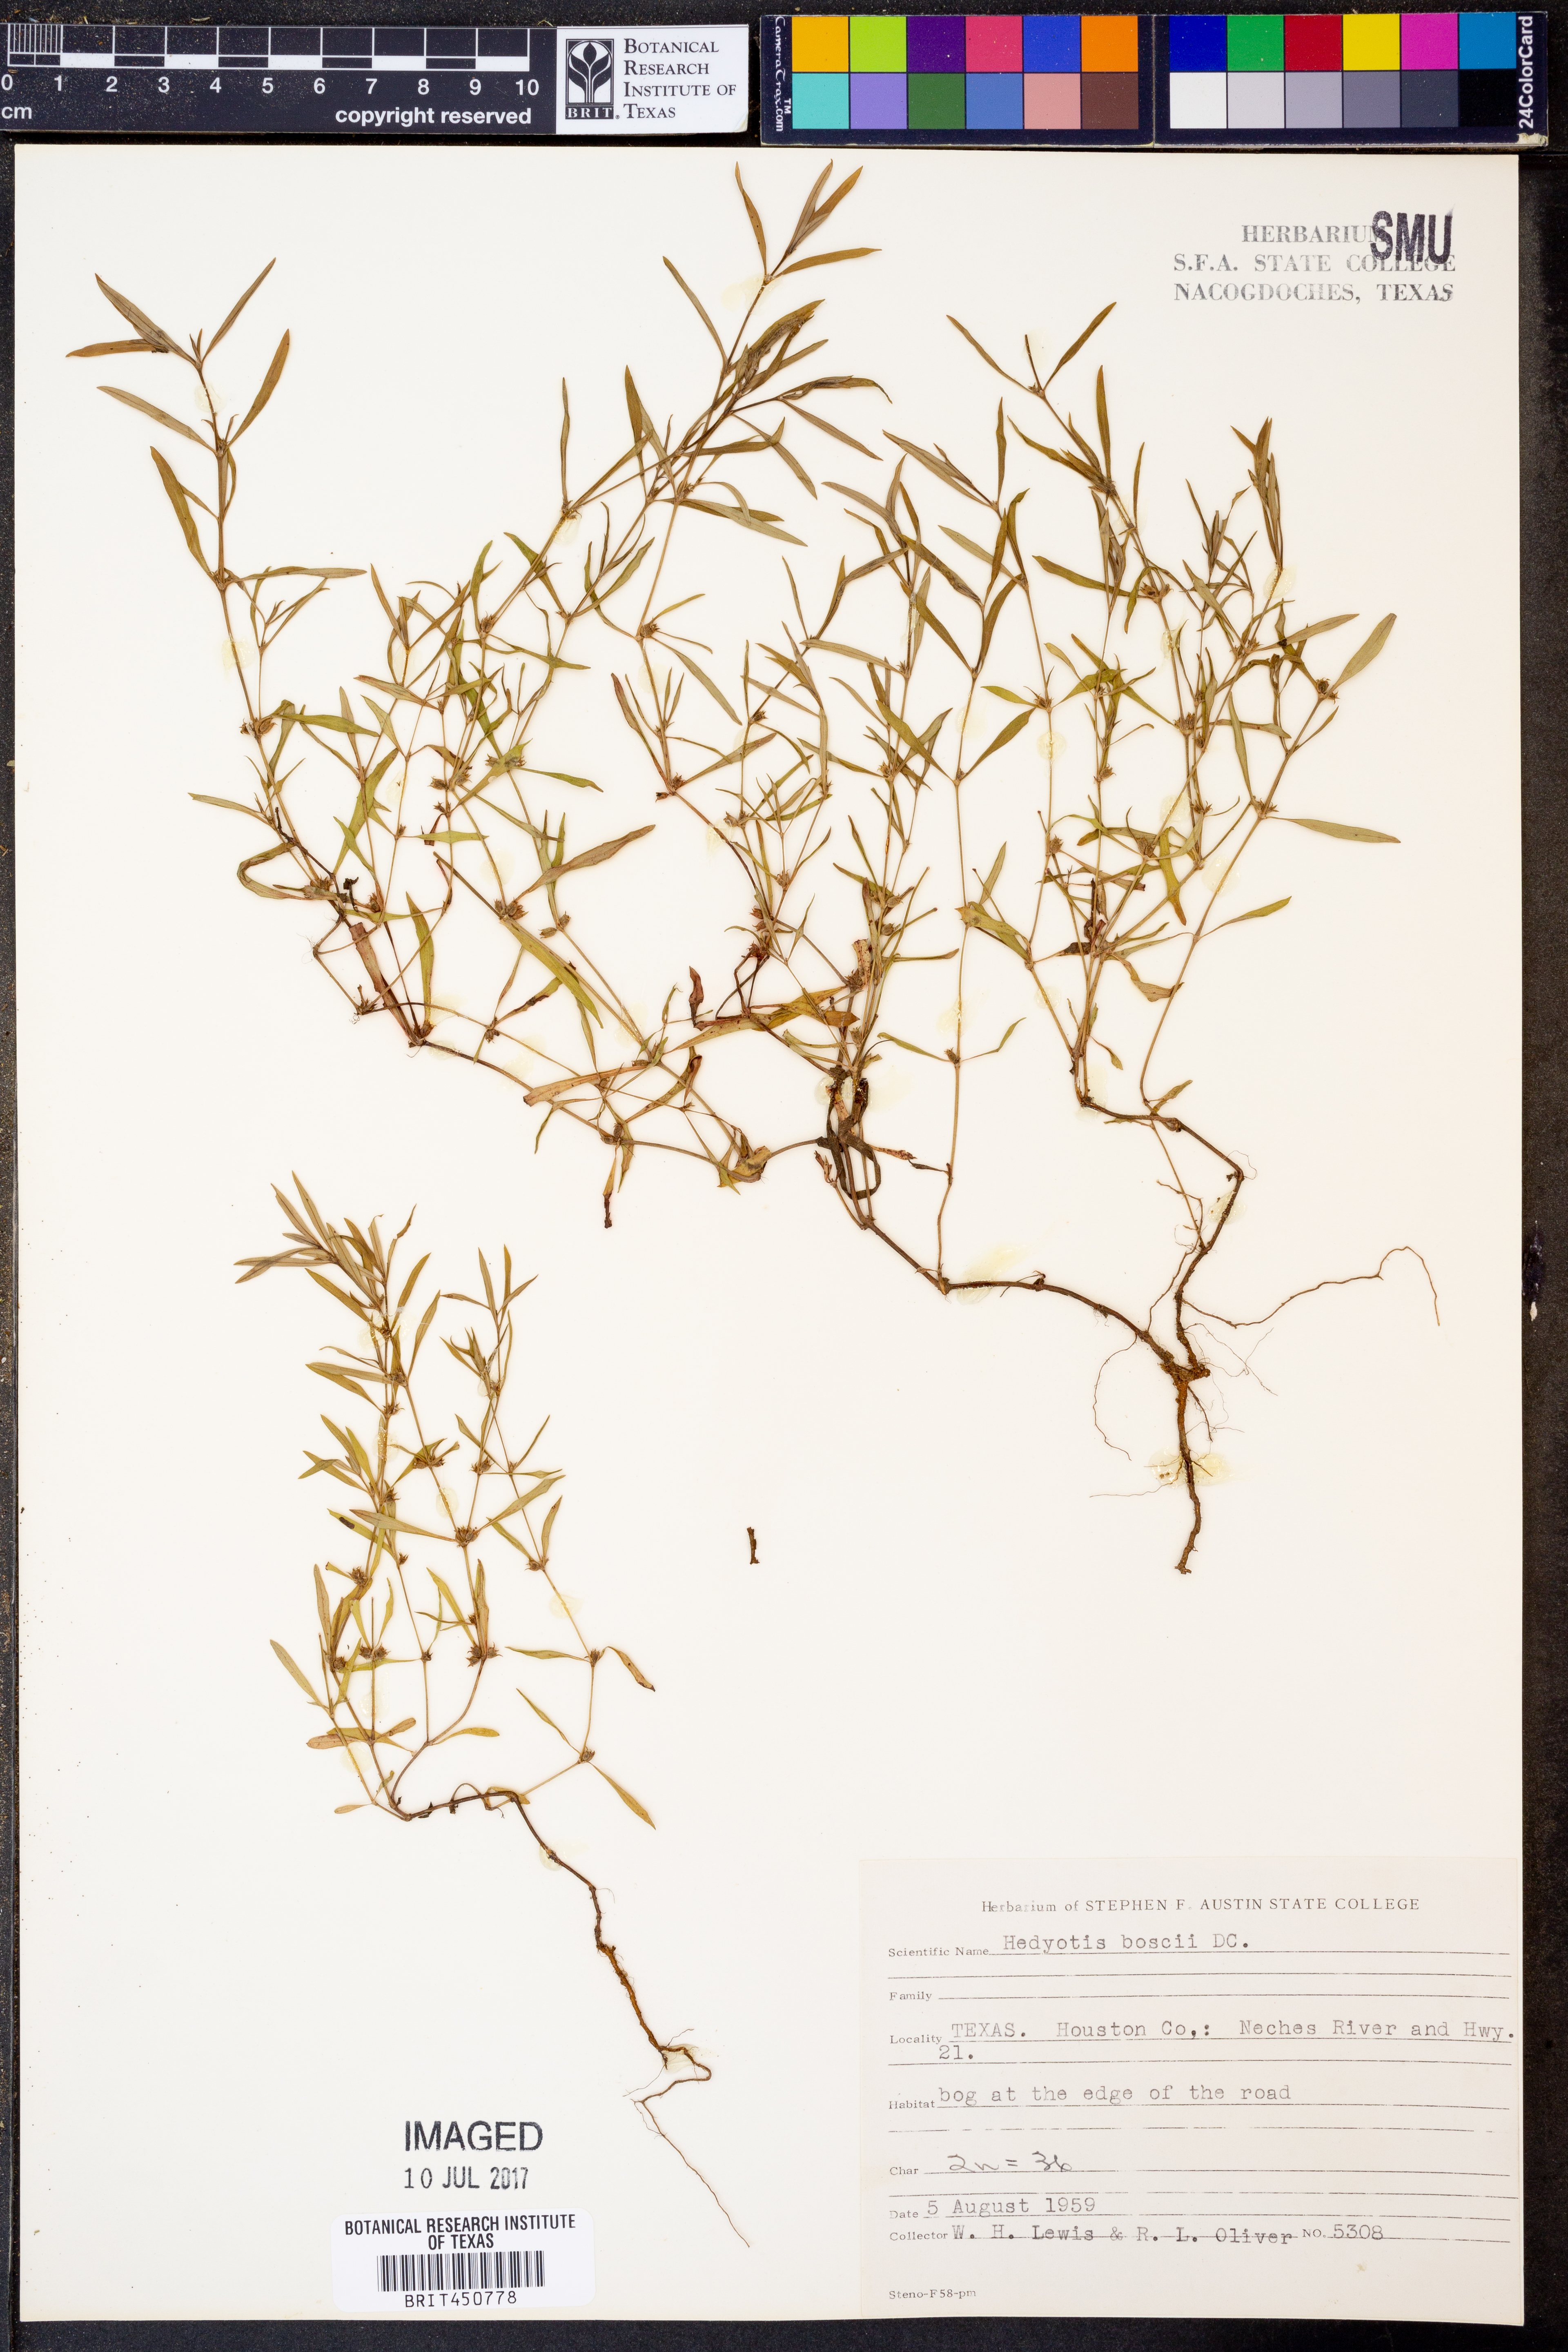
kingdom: Plantae
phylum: Tracheophyta
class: Magnoliopsida
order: Gentianales
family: Rubiaceae
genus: Oldenlandia
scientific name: Oldenlandia boscii
